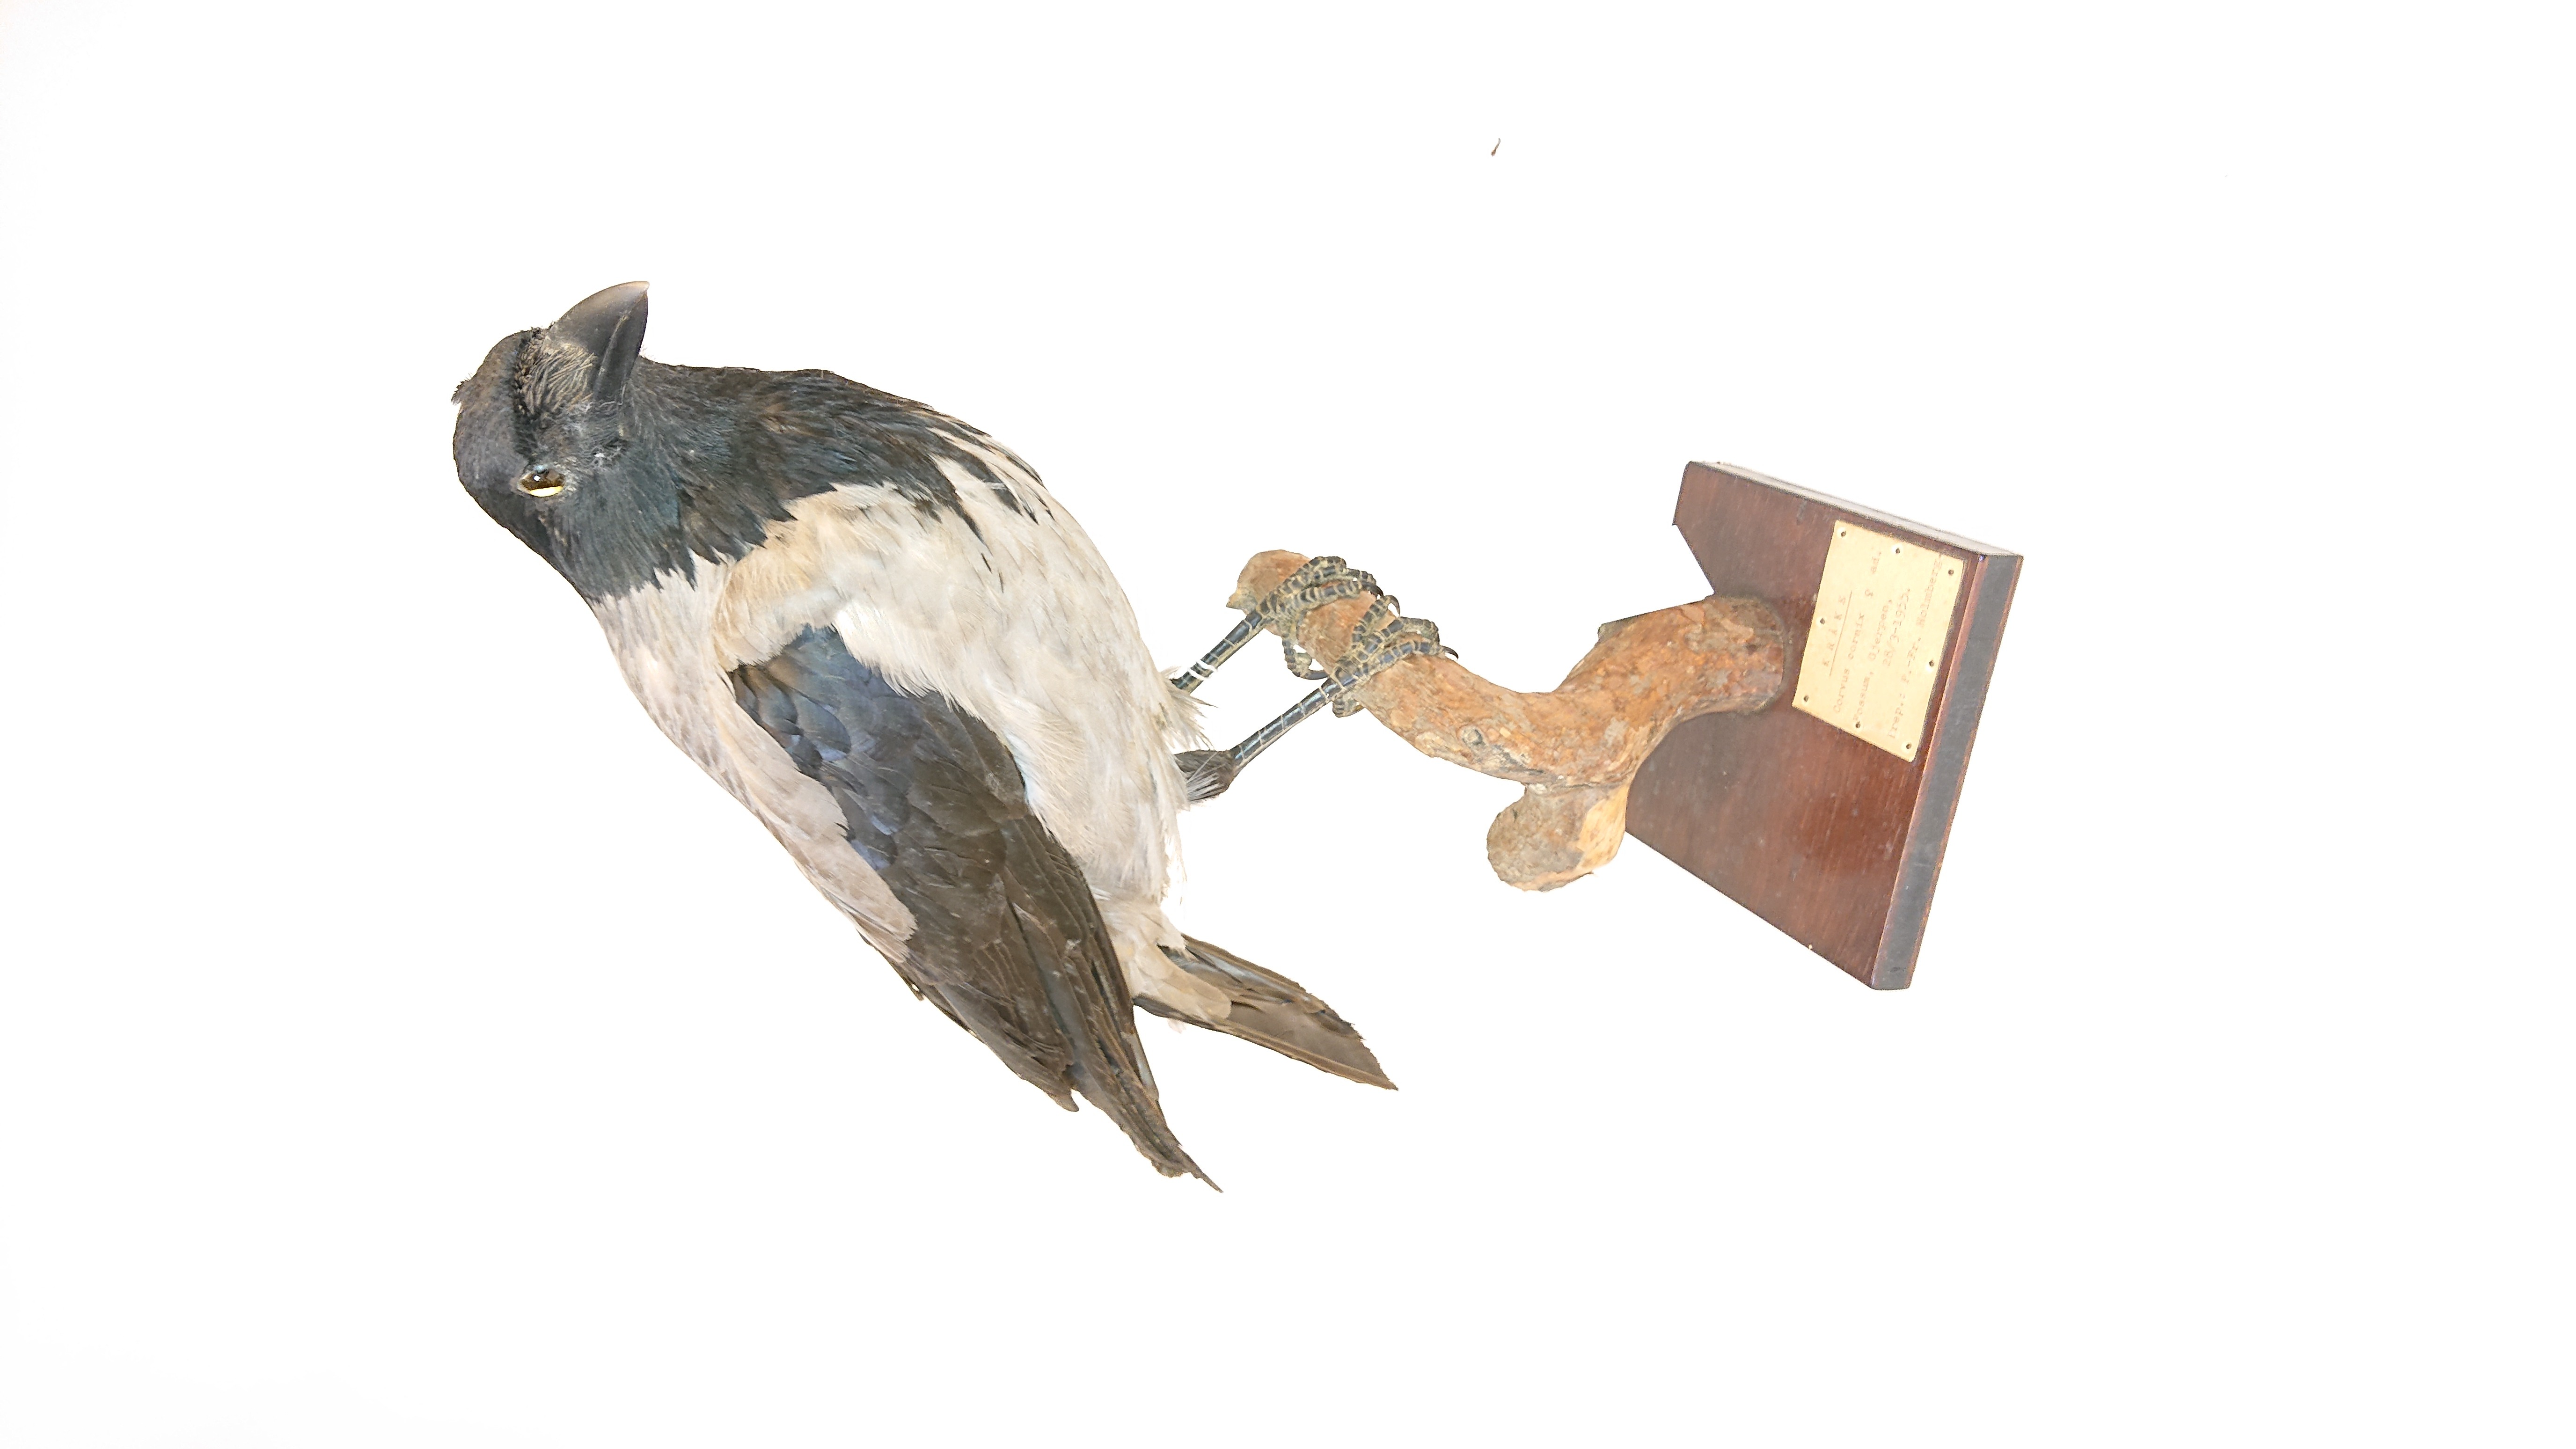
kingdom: Animalia
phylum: Chordata
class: Aves
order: Passeriformes
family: Corvidae
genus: Corvus
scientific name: Corvus cornix
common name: Hooded crow
